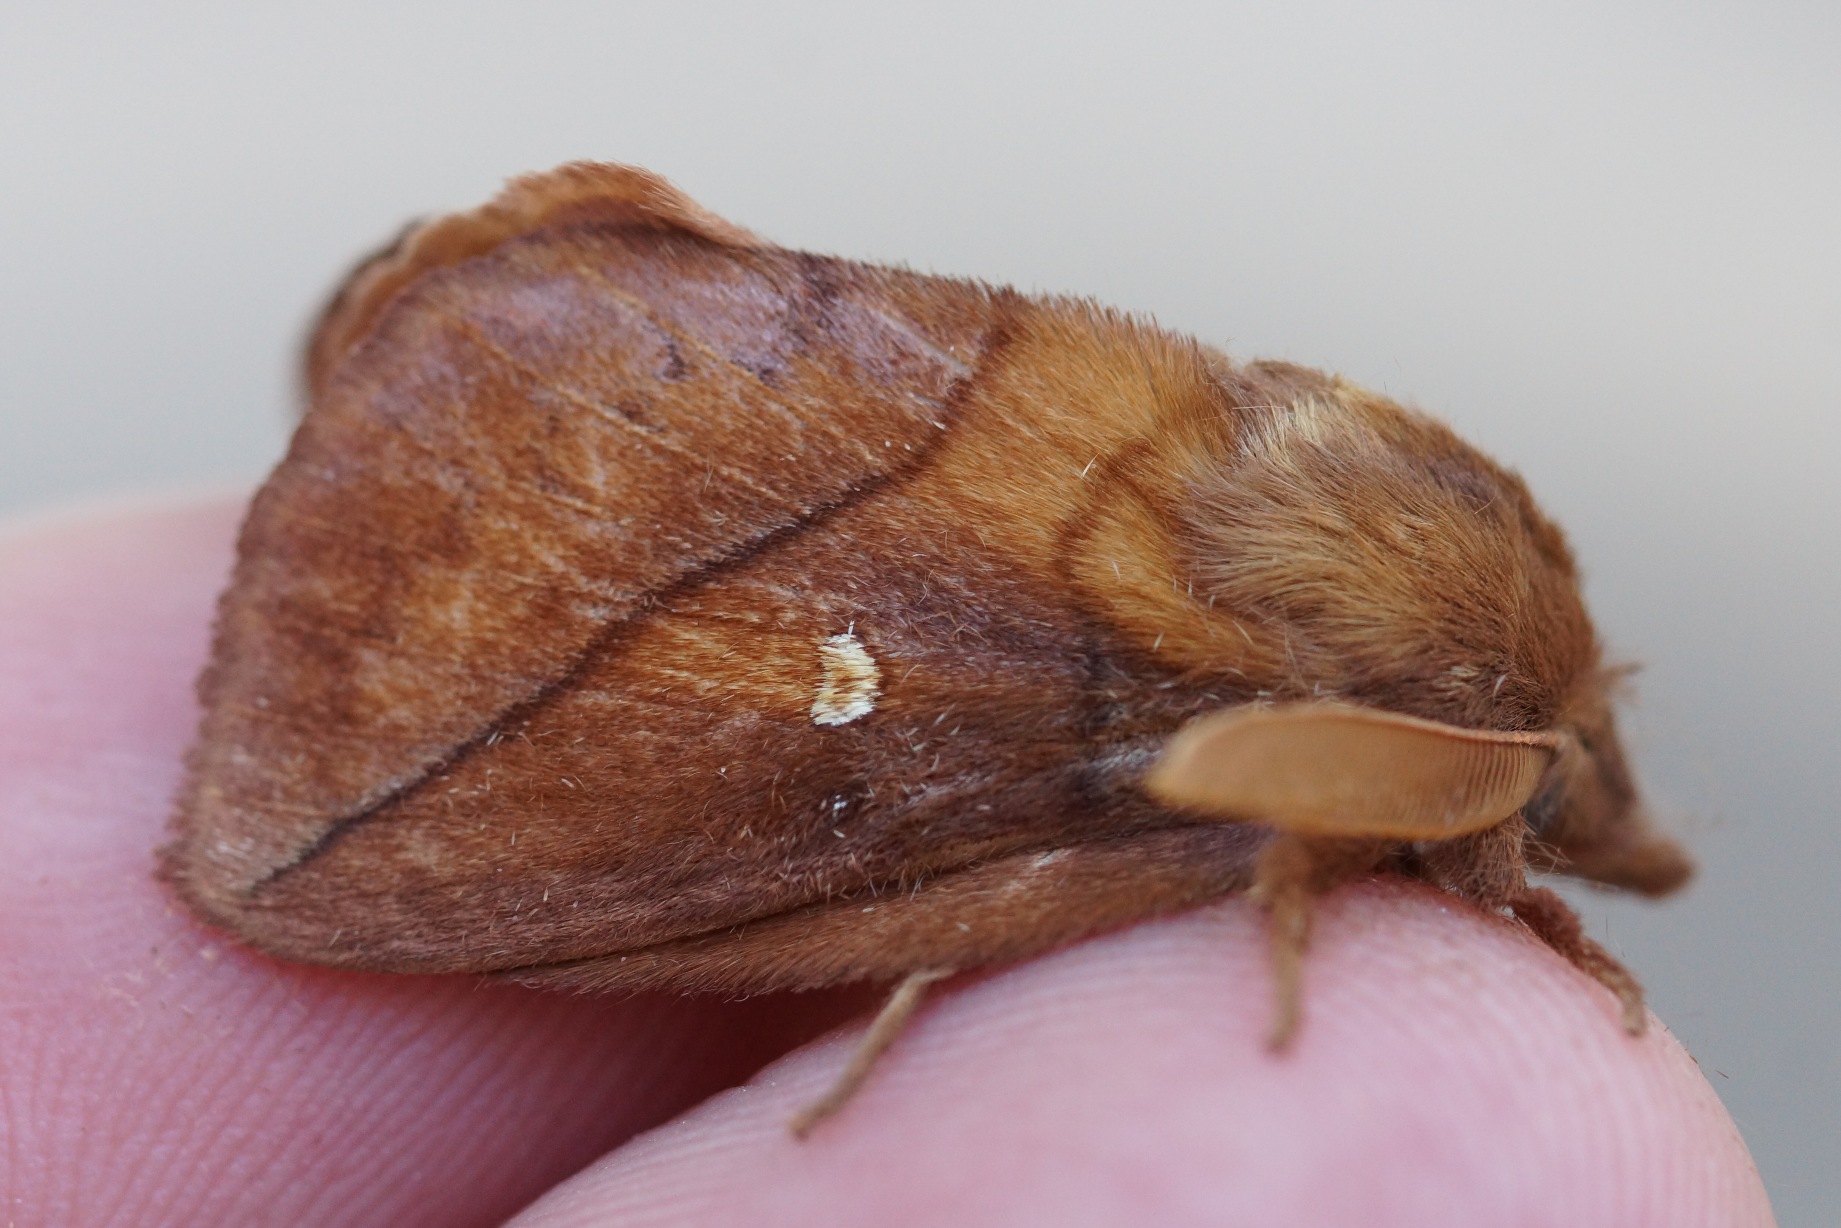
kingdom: Animalia
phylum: Arthropoda
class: Insecta
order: Lepidoptera
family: Lasiocampidae
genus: Euthrix
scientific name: Euthrix potatoria
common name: Græsspinder
